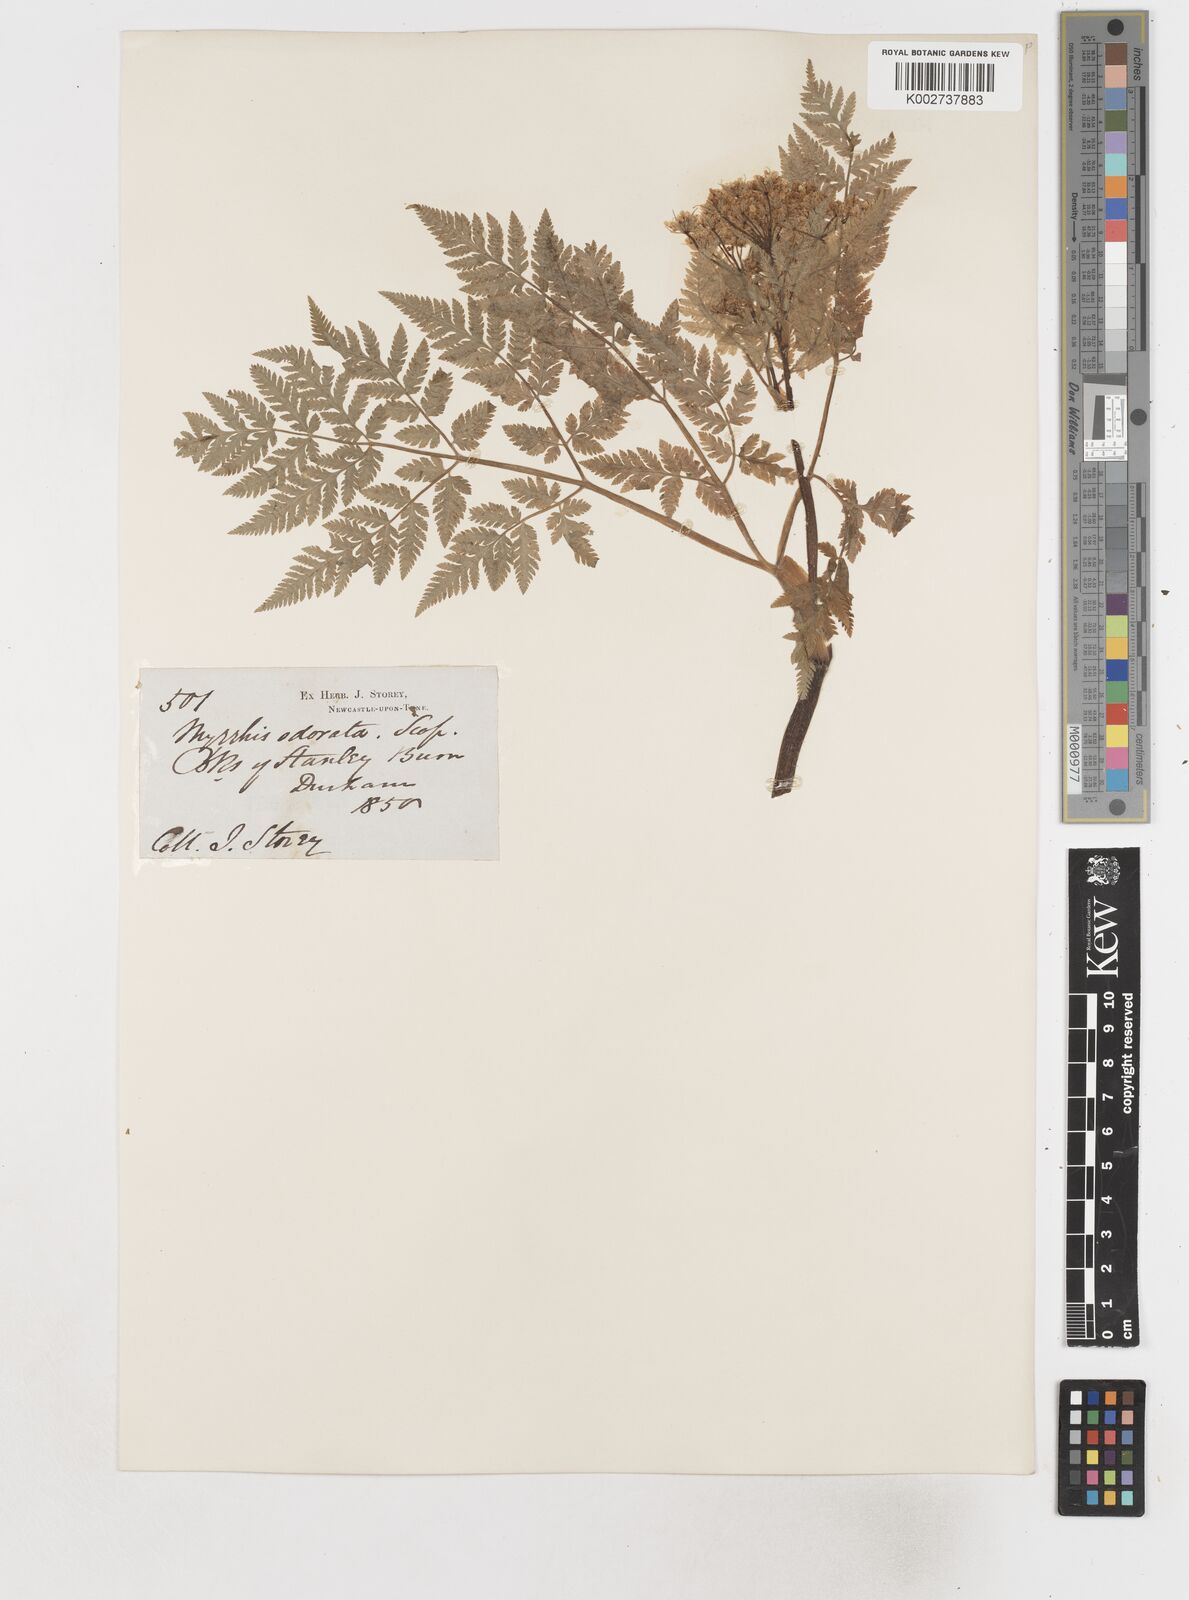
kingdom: Plantae
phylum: Tracheophyta
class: Magnoliopsida
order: Apiales
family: Apiaceae
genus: Myrrhis
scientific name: Myrrhis odorata
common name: Sweet cicely
